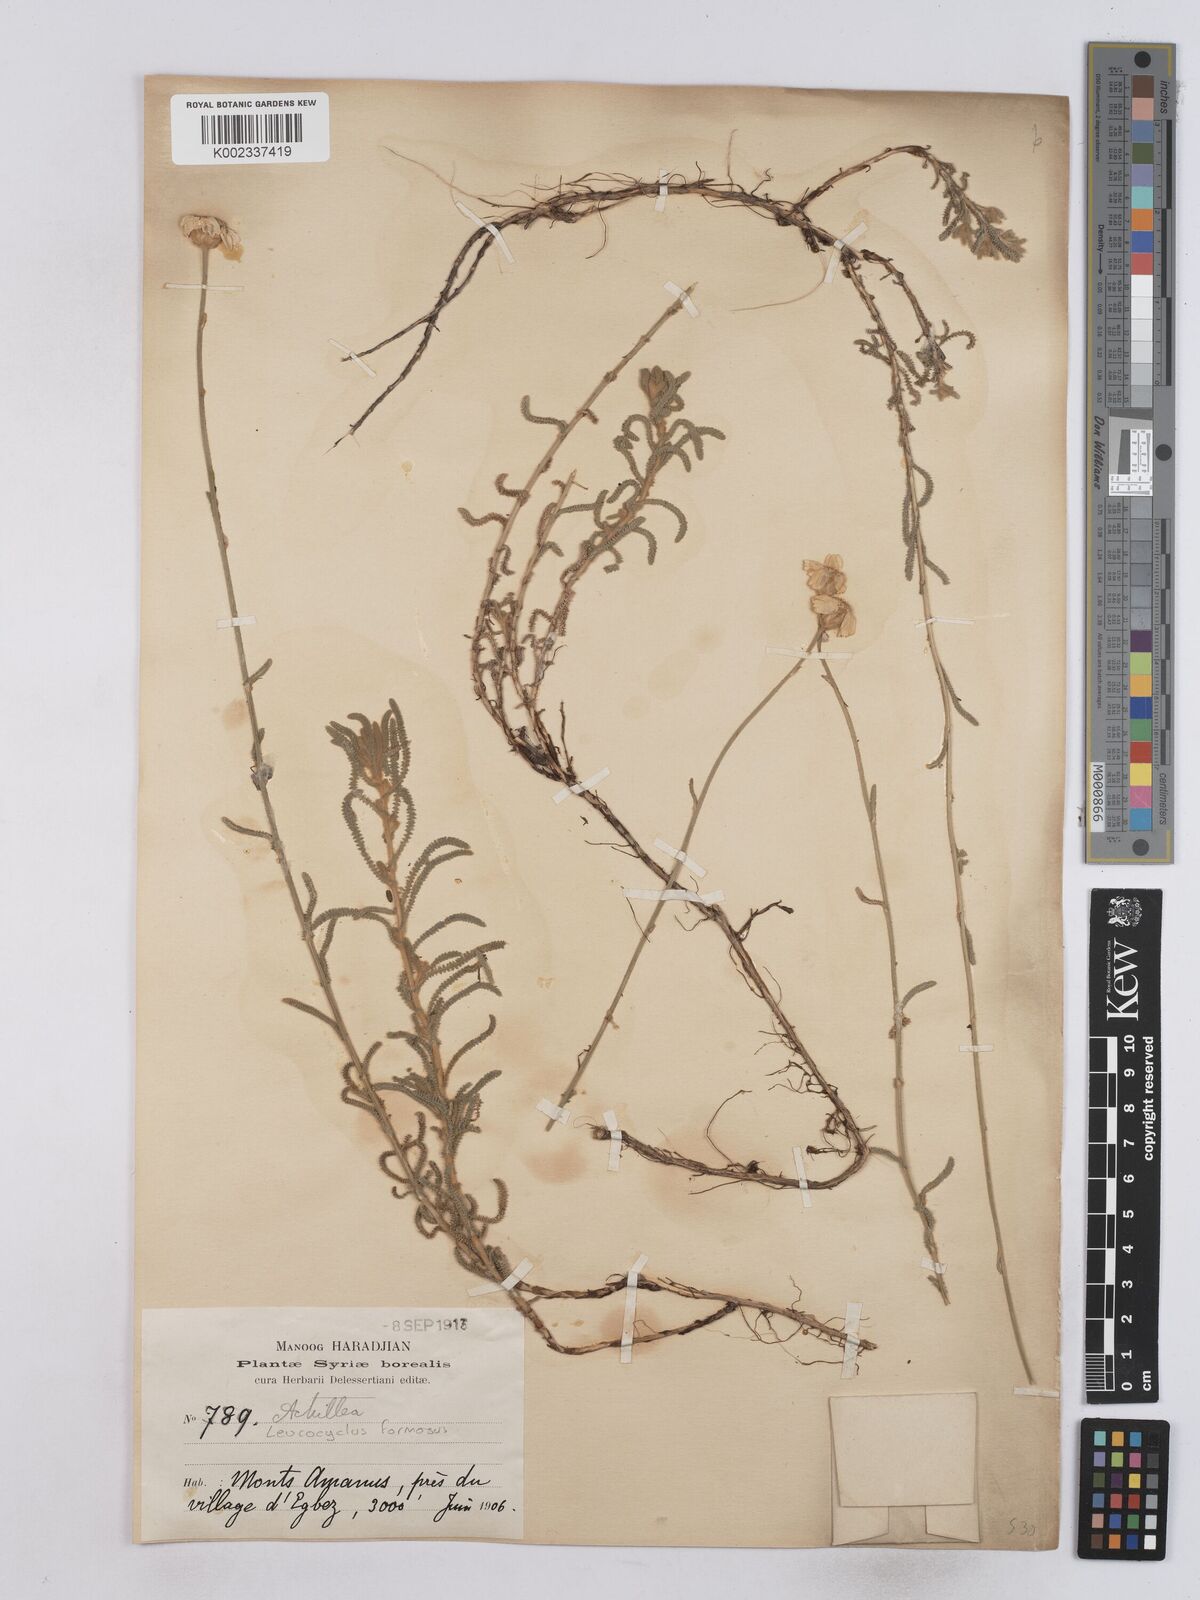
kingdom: Plantae
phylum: Tracheophyta
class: Magnoliopsida
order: Asterales
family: Asteraceae
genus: Achillea
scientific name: Achillea formosa
